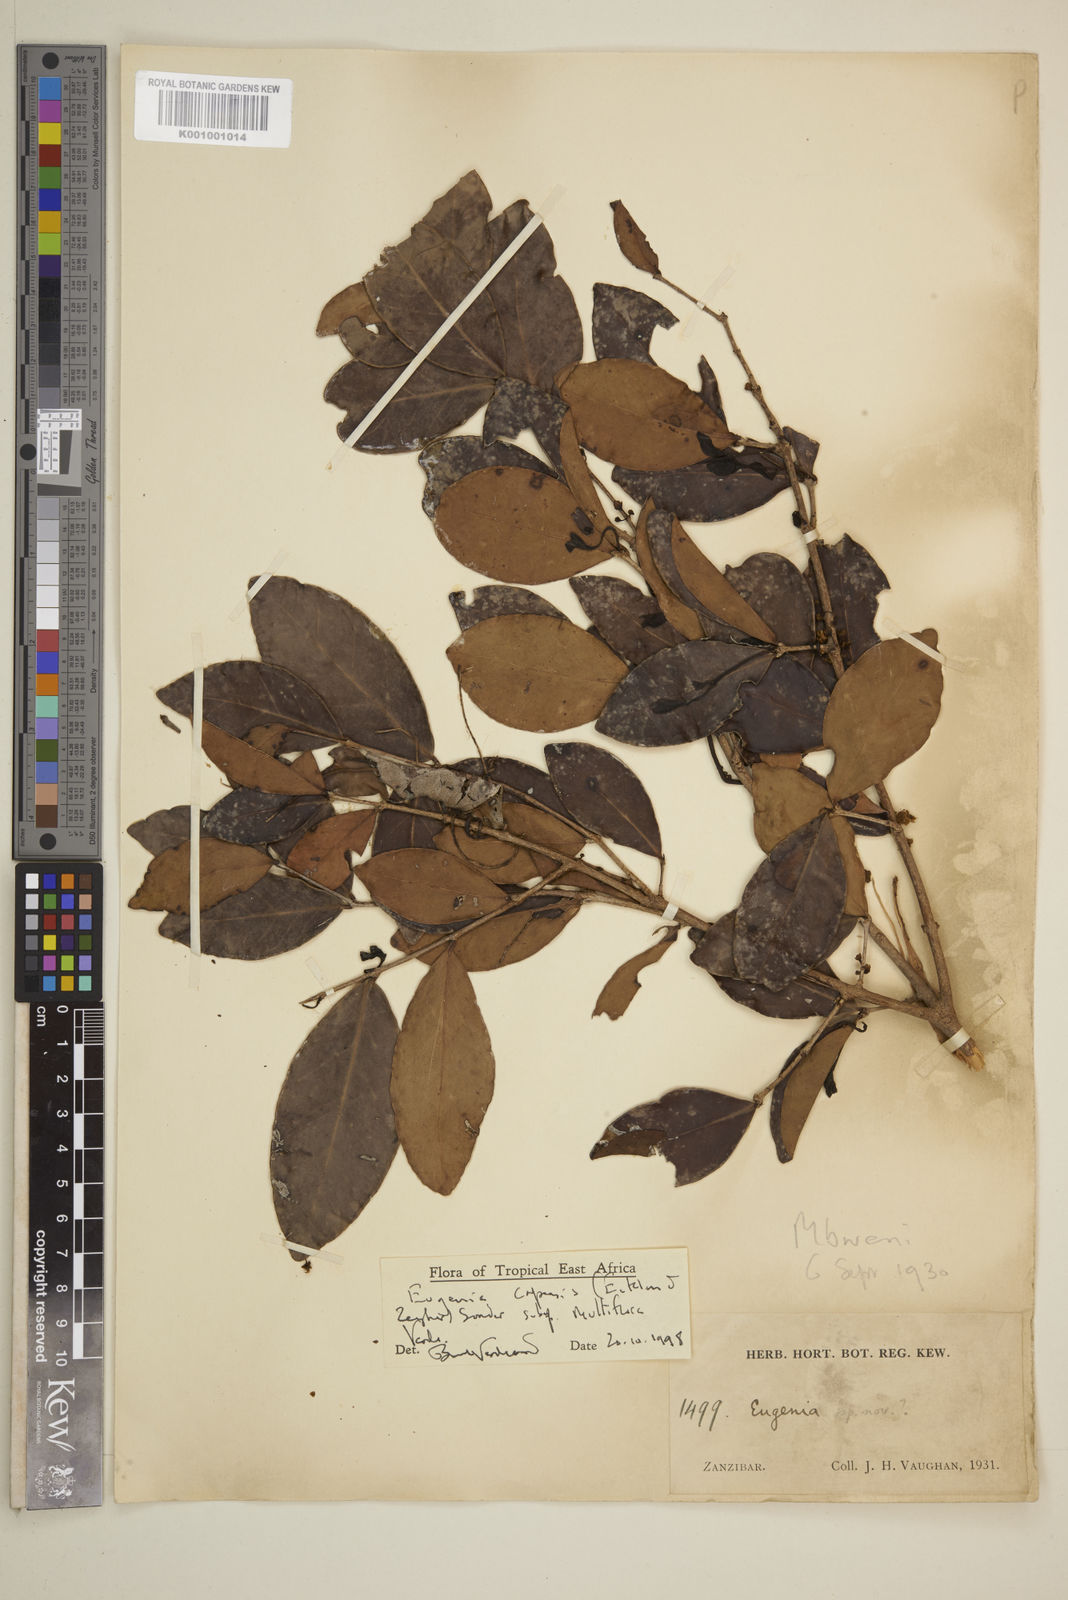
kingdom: Plantae
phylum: Tracheophyta
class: Magnoliopsida
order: Myrtales
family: Myrtaceae
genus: Eugenia
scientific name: Eugenia capensis
